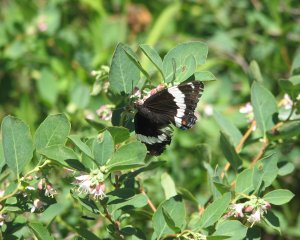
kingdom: Animalia
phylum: Arthropoda
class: Insecta
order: Lepidoptera
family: Nymphalidae
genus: Limenitis
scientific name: Limenitis arthemis
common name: Red-spotted Admiral
